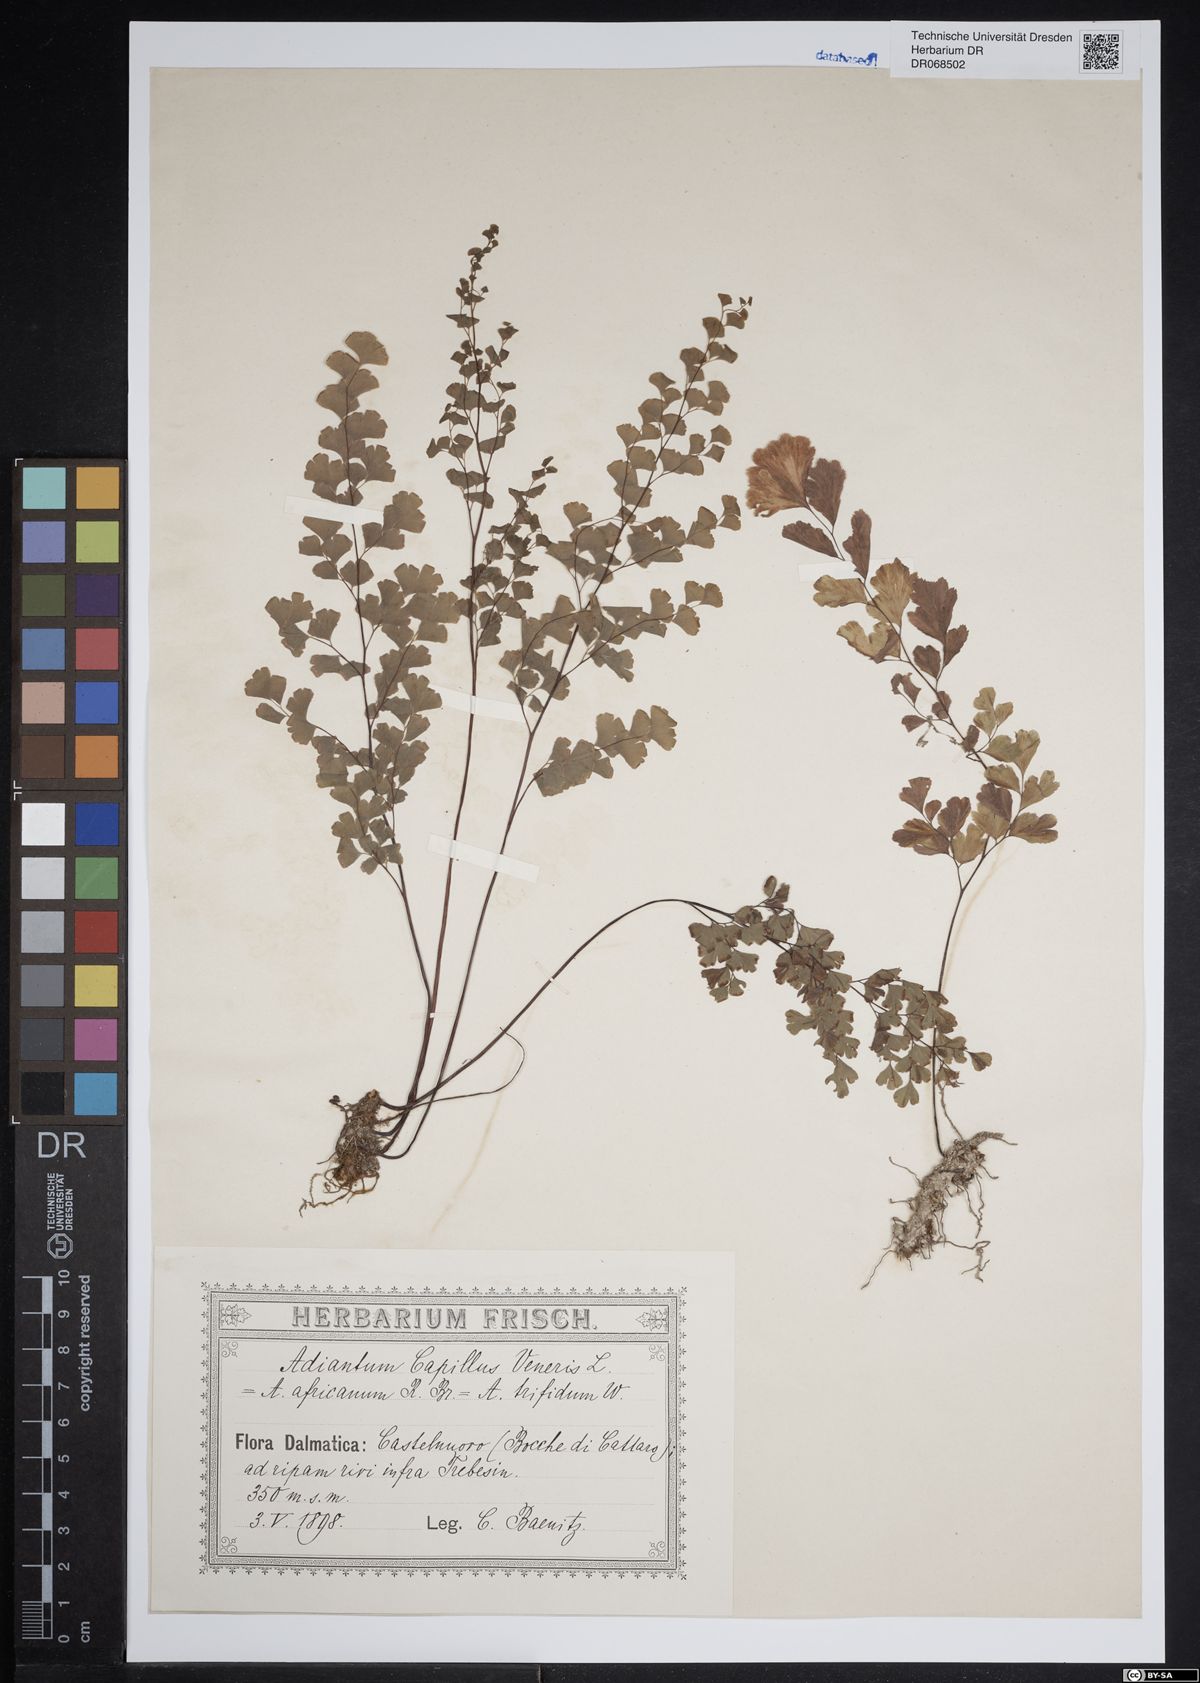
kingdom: Plantae
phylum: Tracheophyta
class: Polypodiopsida
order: Polypodiales
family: Pteridaceae
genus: Adiantum
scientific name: Adiantum capillus-veneris
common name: Maidenhair fern
